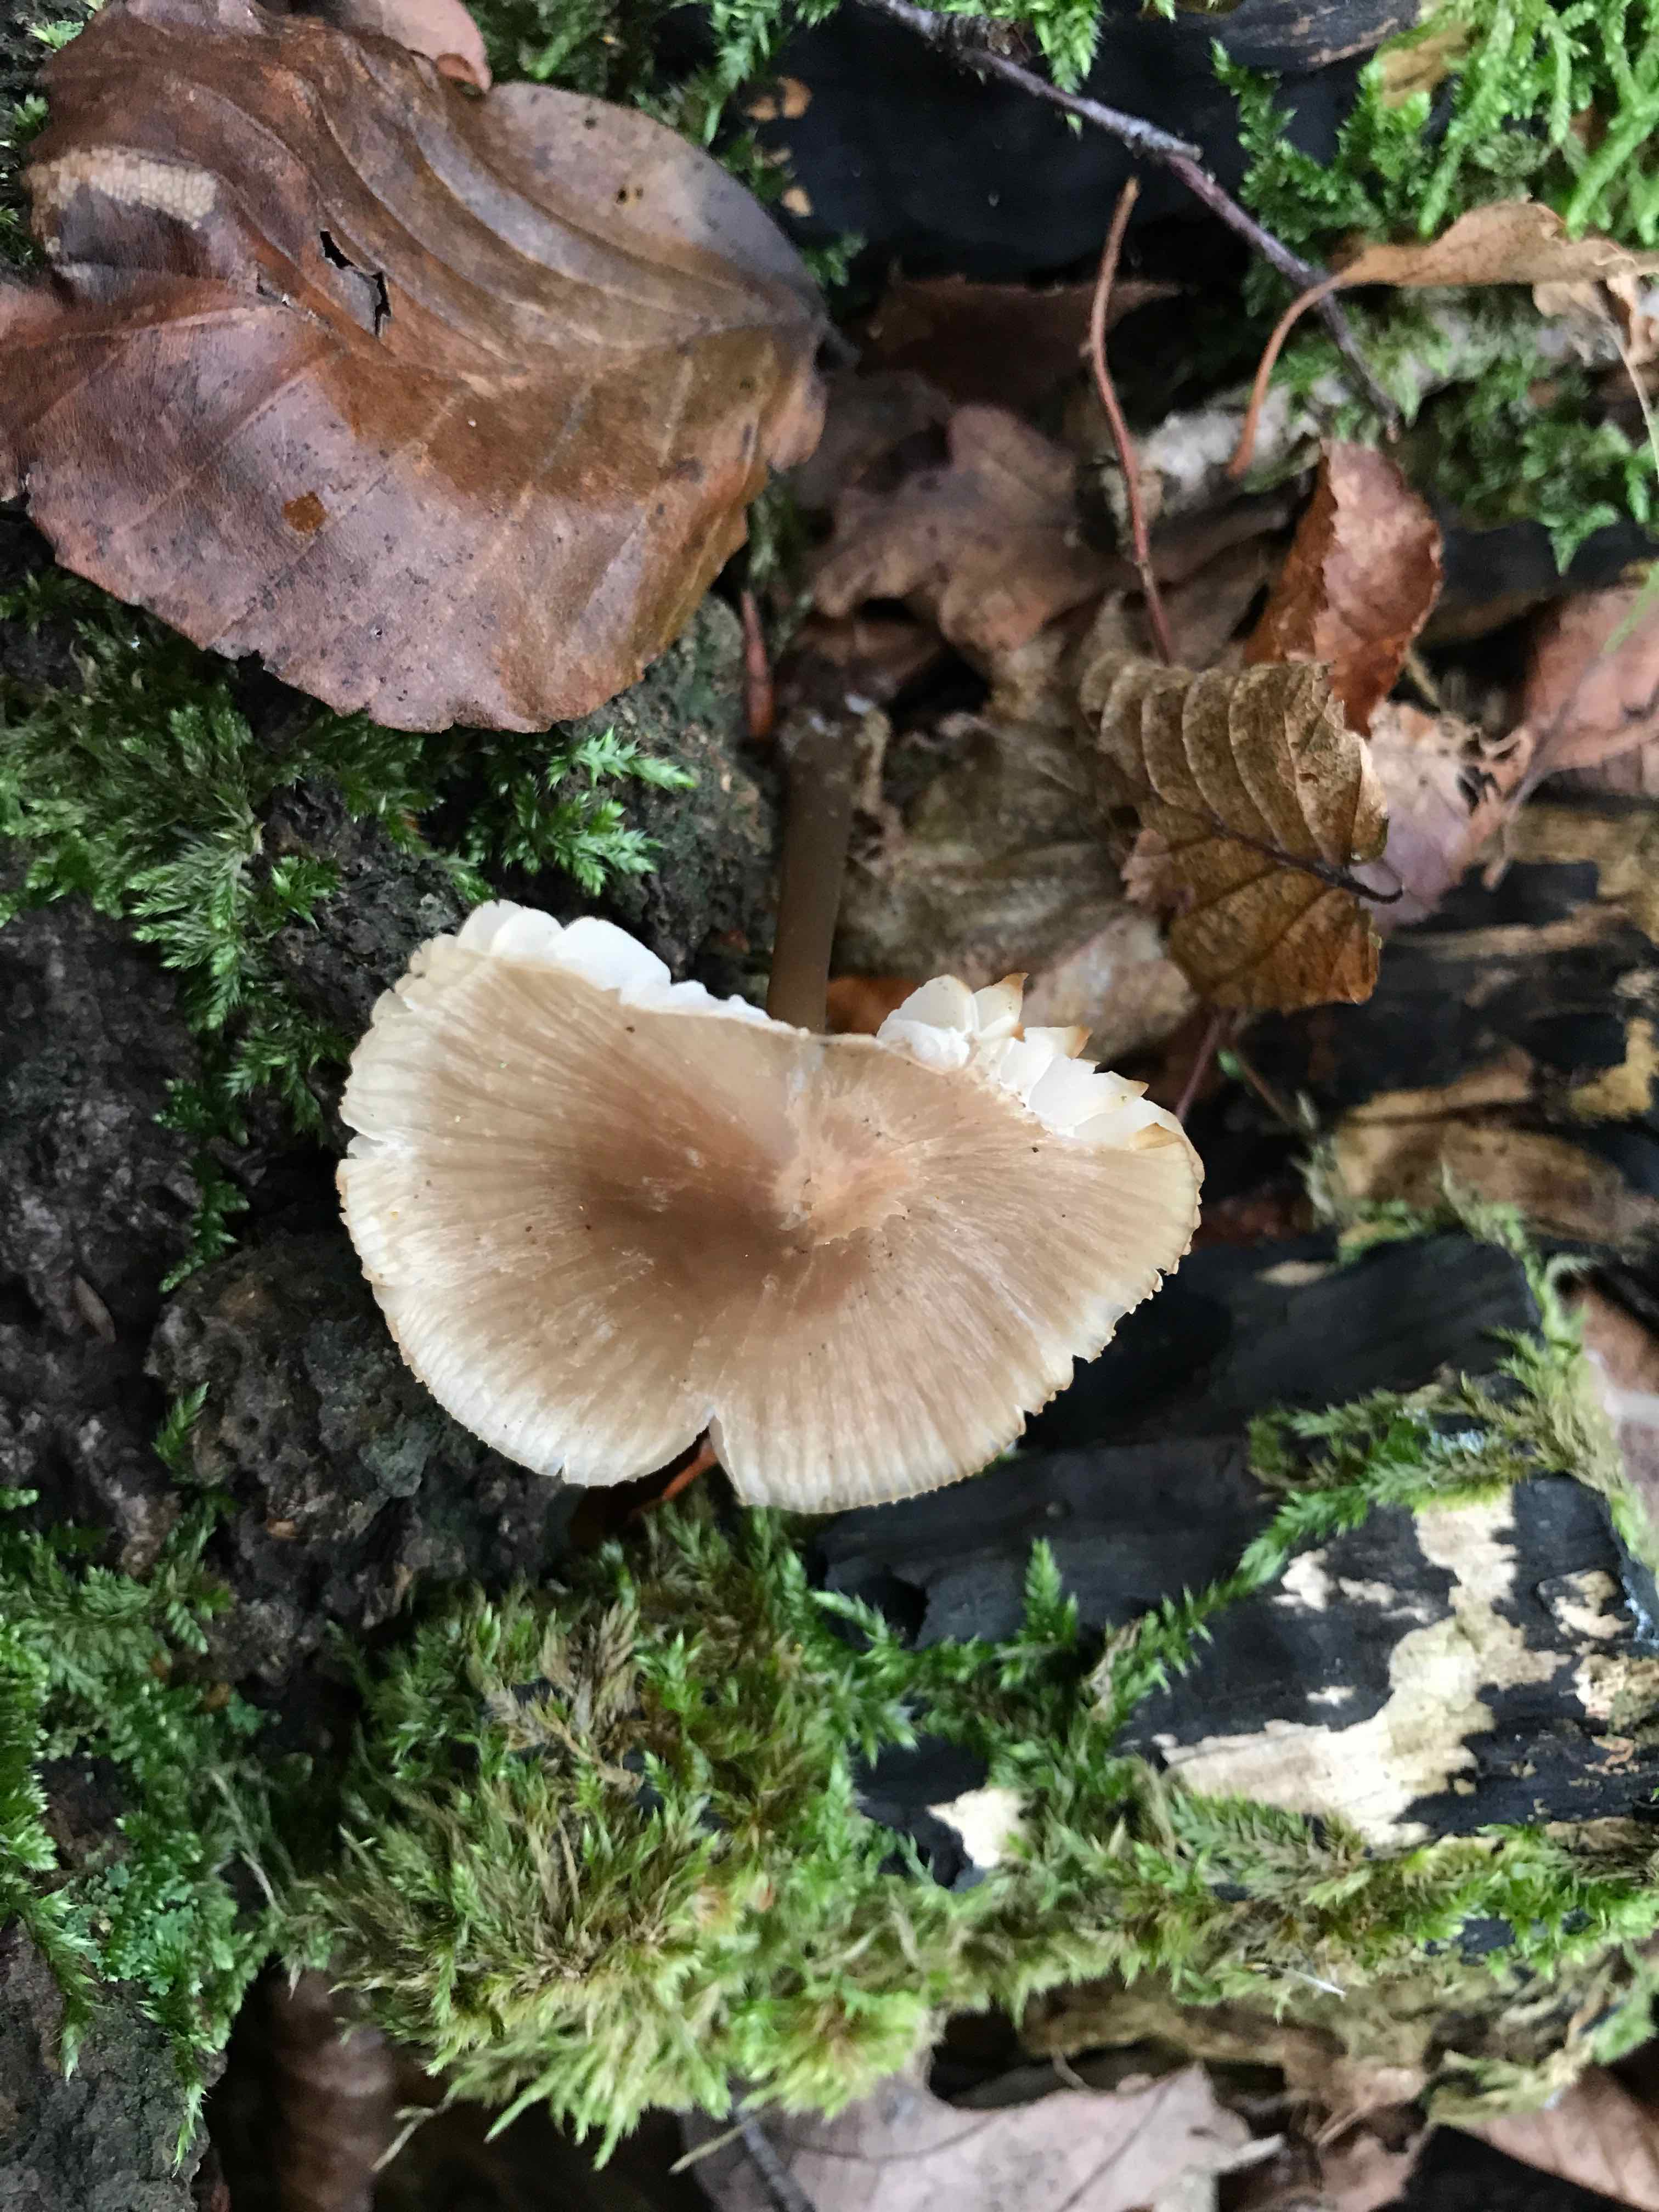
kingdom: Fungi
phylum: Basidiomycota
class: Agaricomycetes
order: Agaricales
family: Mycenaceae
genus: Mycena
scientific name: Mycena
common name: huesvamp
